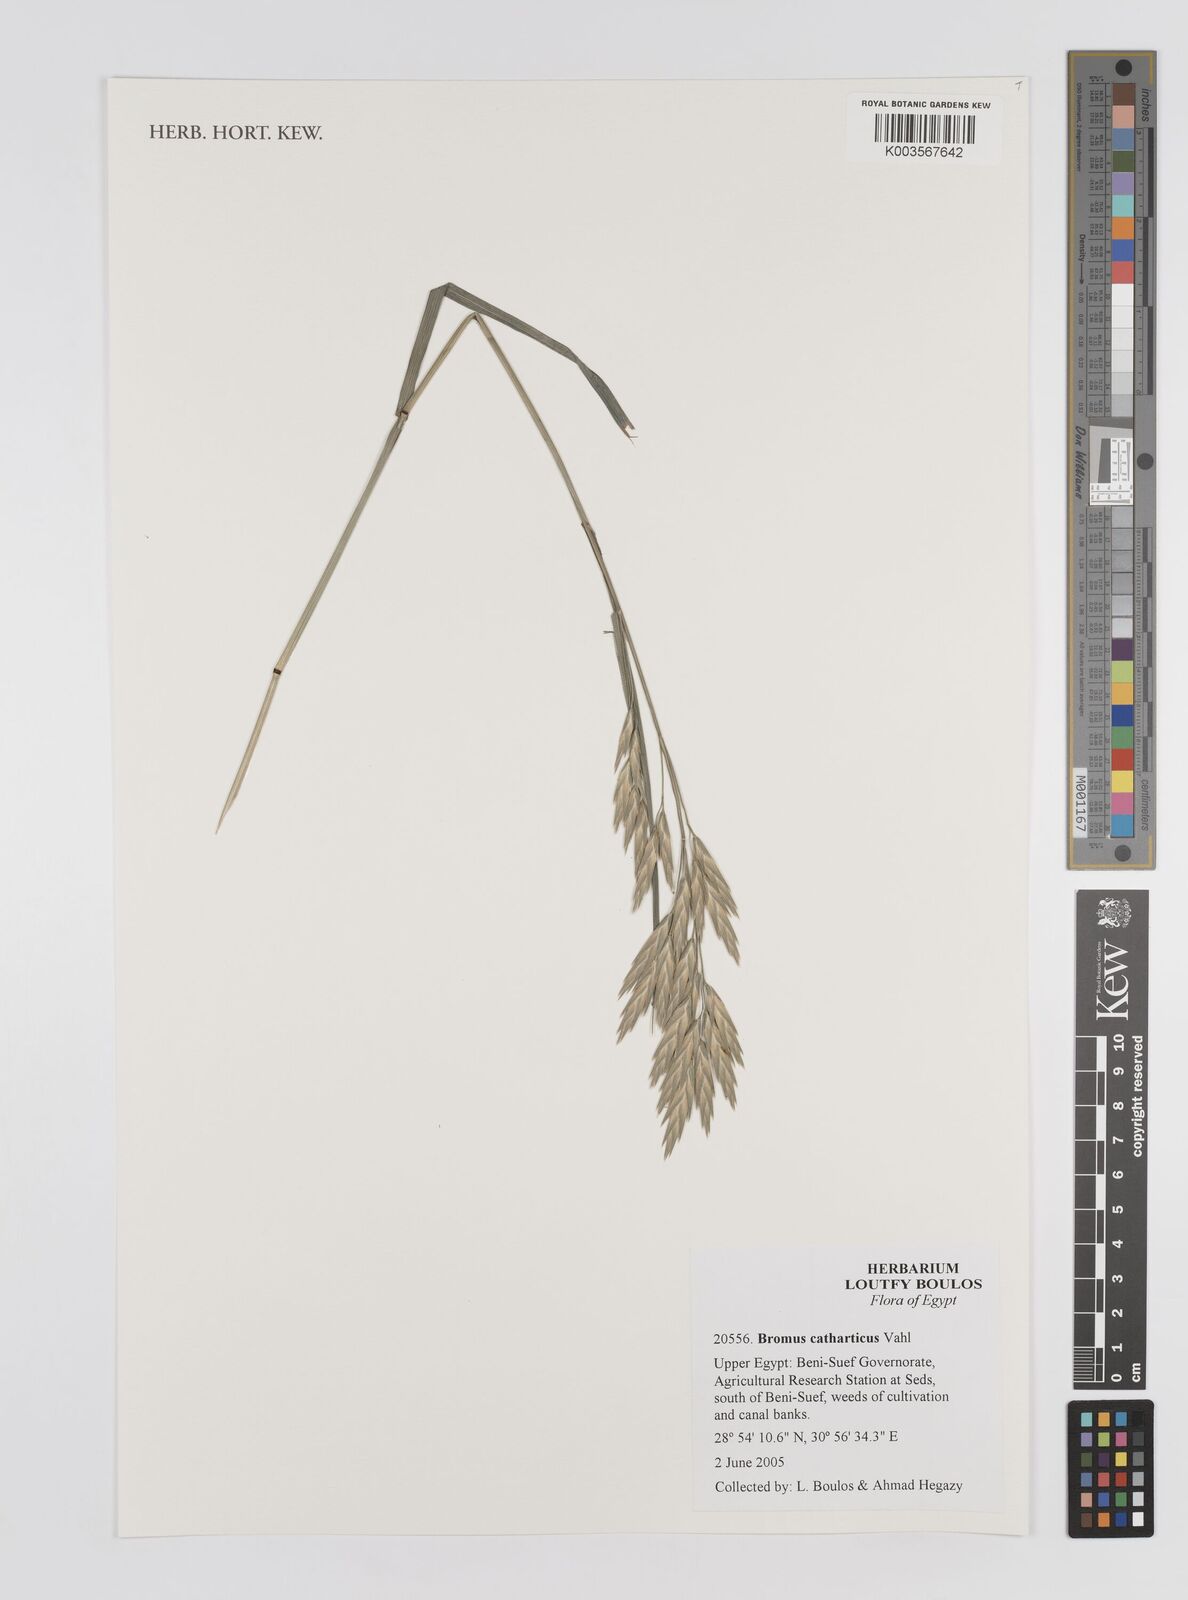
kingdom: Plantae
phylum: Tracheophyta
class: Liliopsida
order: Poales
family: Poaceae
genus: Bromus
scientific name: Bromus catharticus
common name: Rescuegrass
